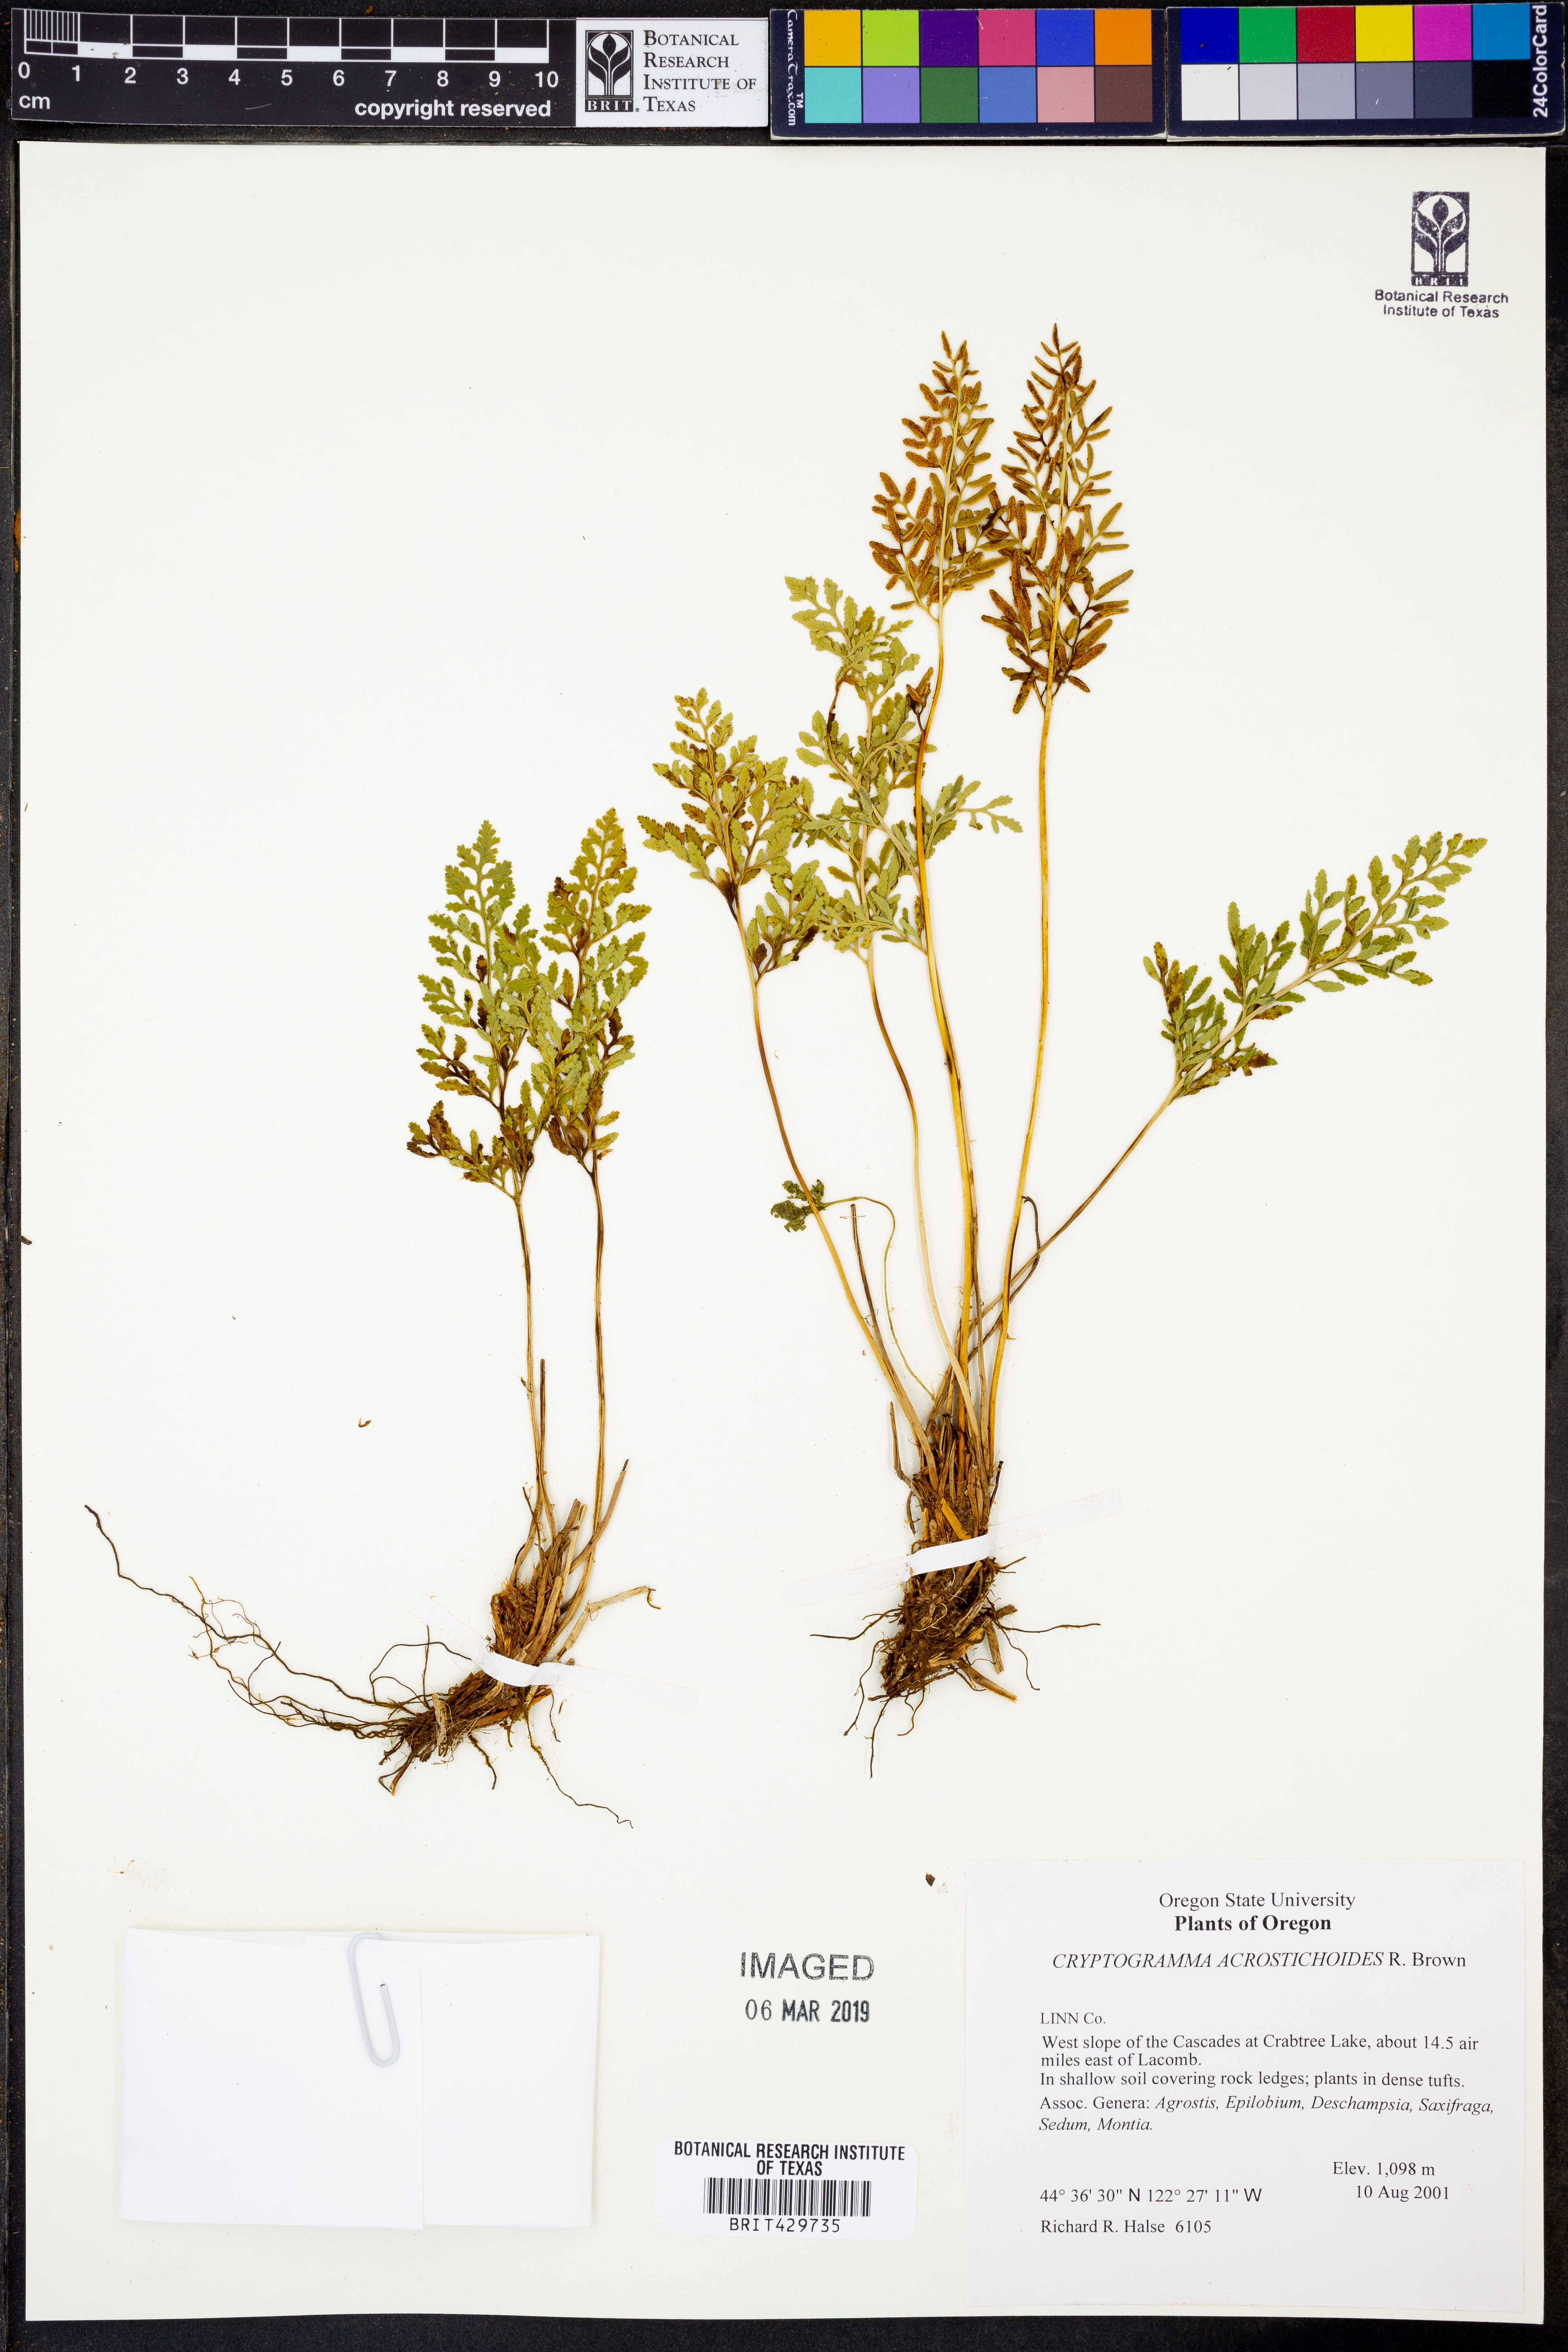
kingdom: Plantae
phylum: Tracheophyta
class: Polypodiopsida
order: Polypodiales
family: Pteridaceae
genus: Cryptogramma
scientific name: Cryptogramma acrostichoides
